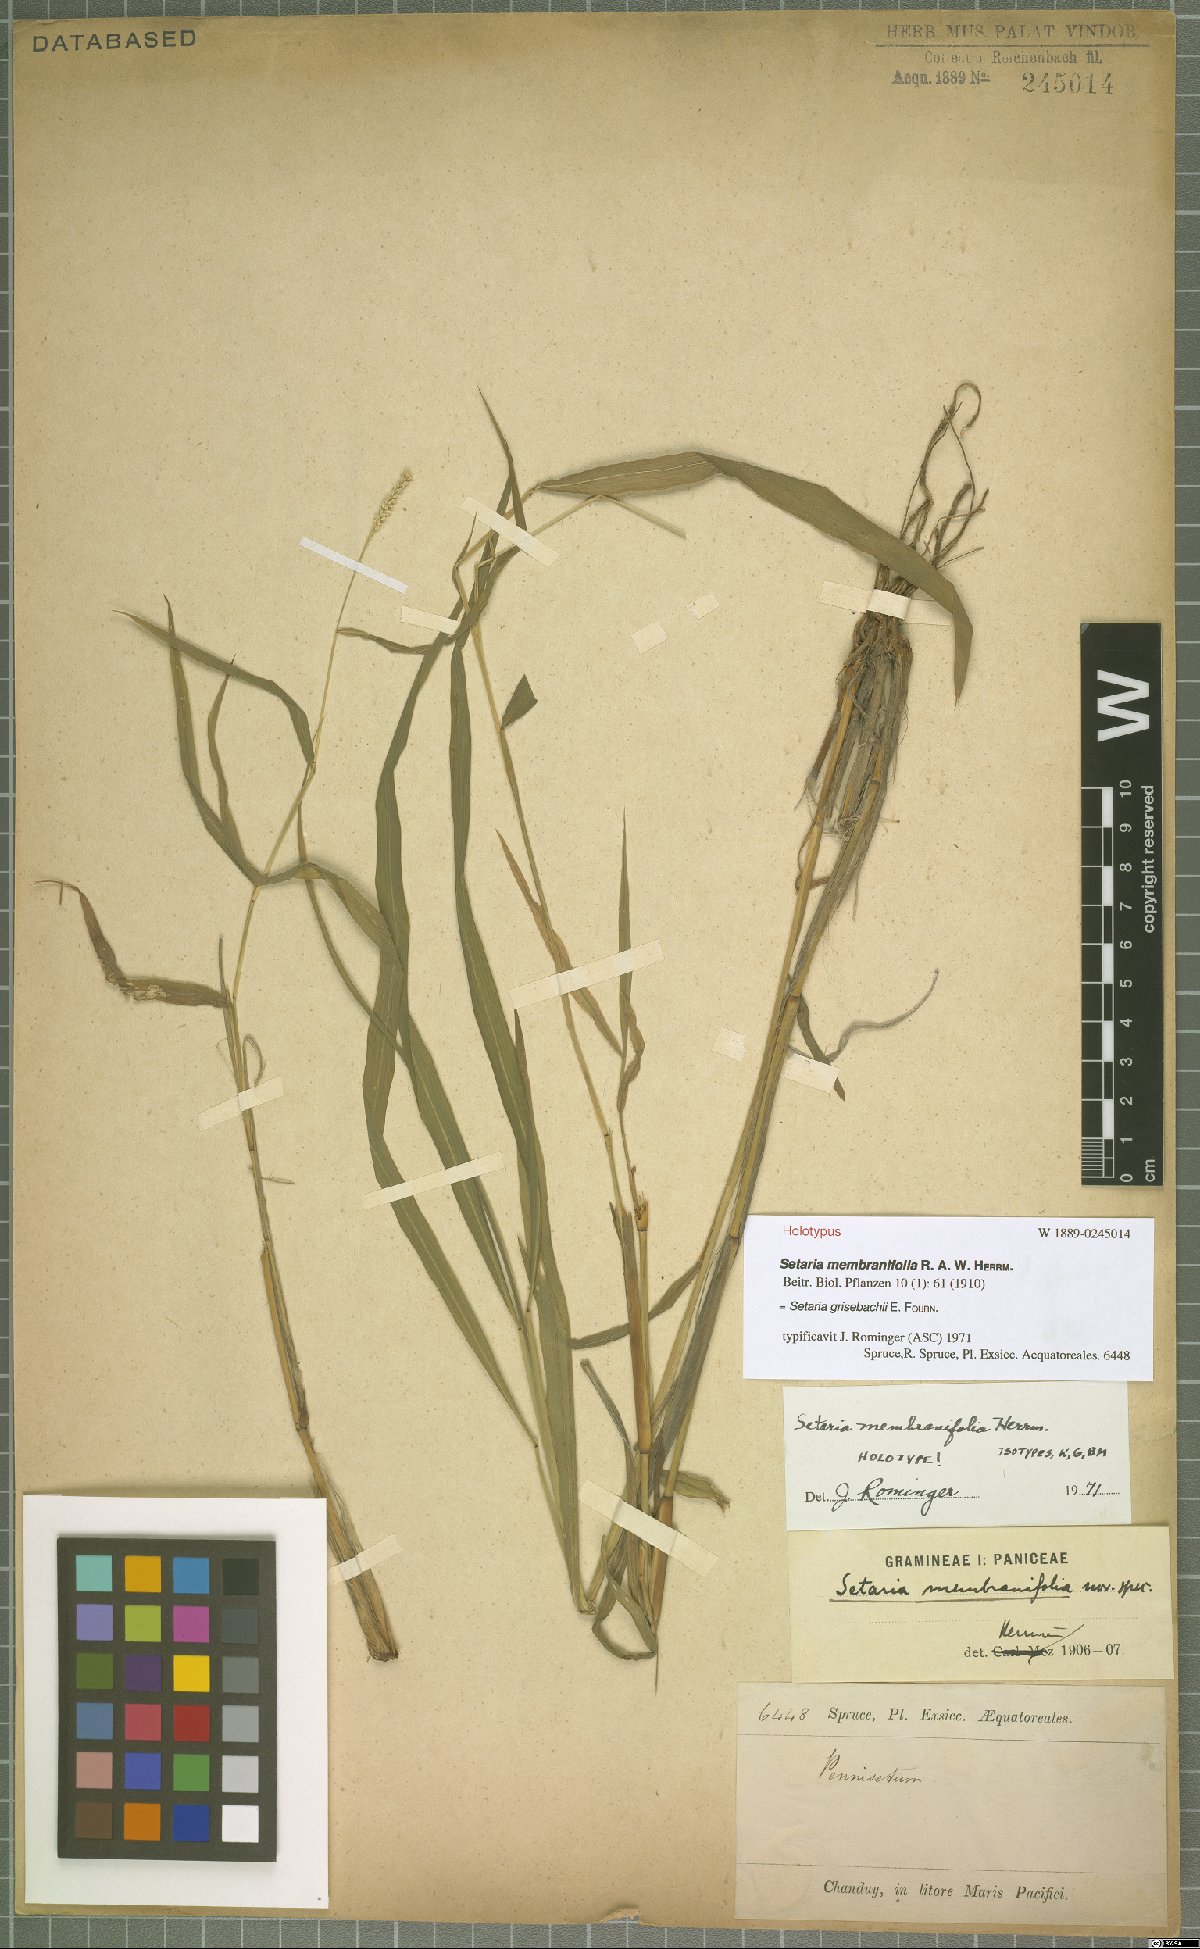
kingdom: Plantae
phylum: Tracheophyta
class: Liliopsida
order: Poales
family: Poaceae
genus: Setaria
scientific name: Setaria grisebachii
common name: Grisebach's bristle grass
